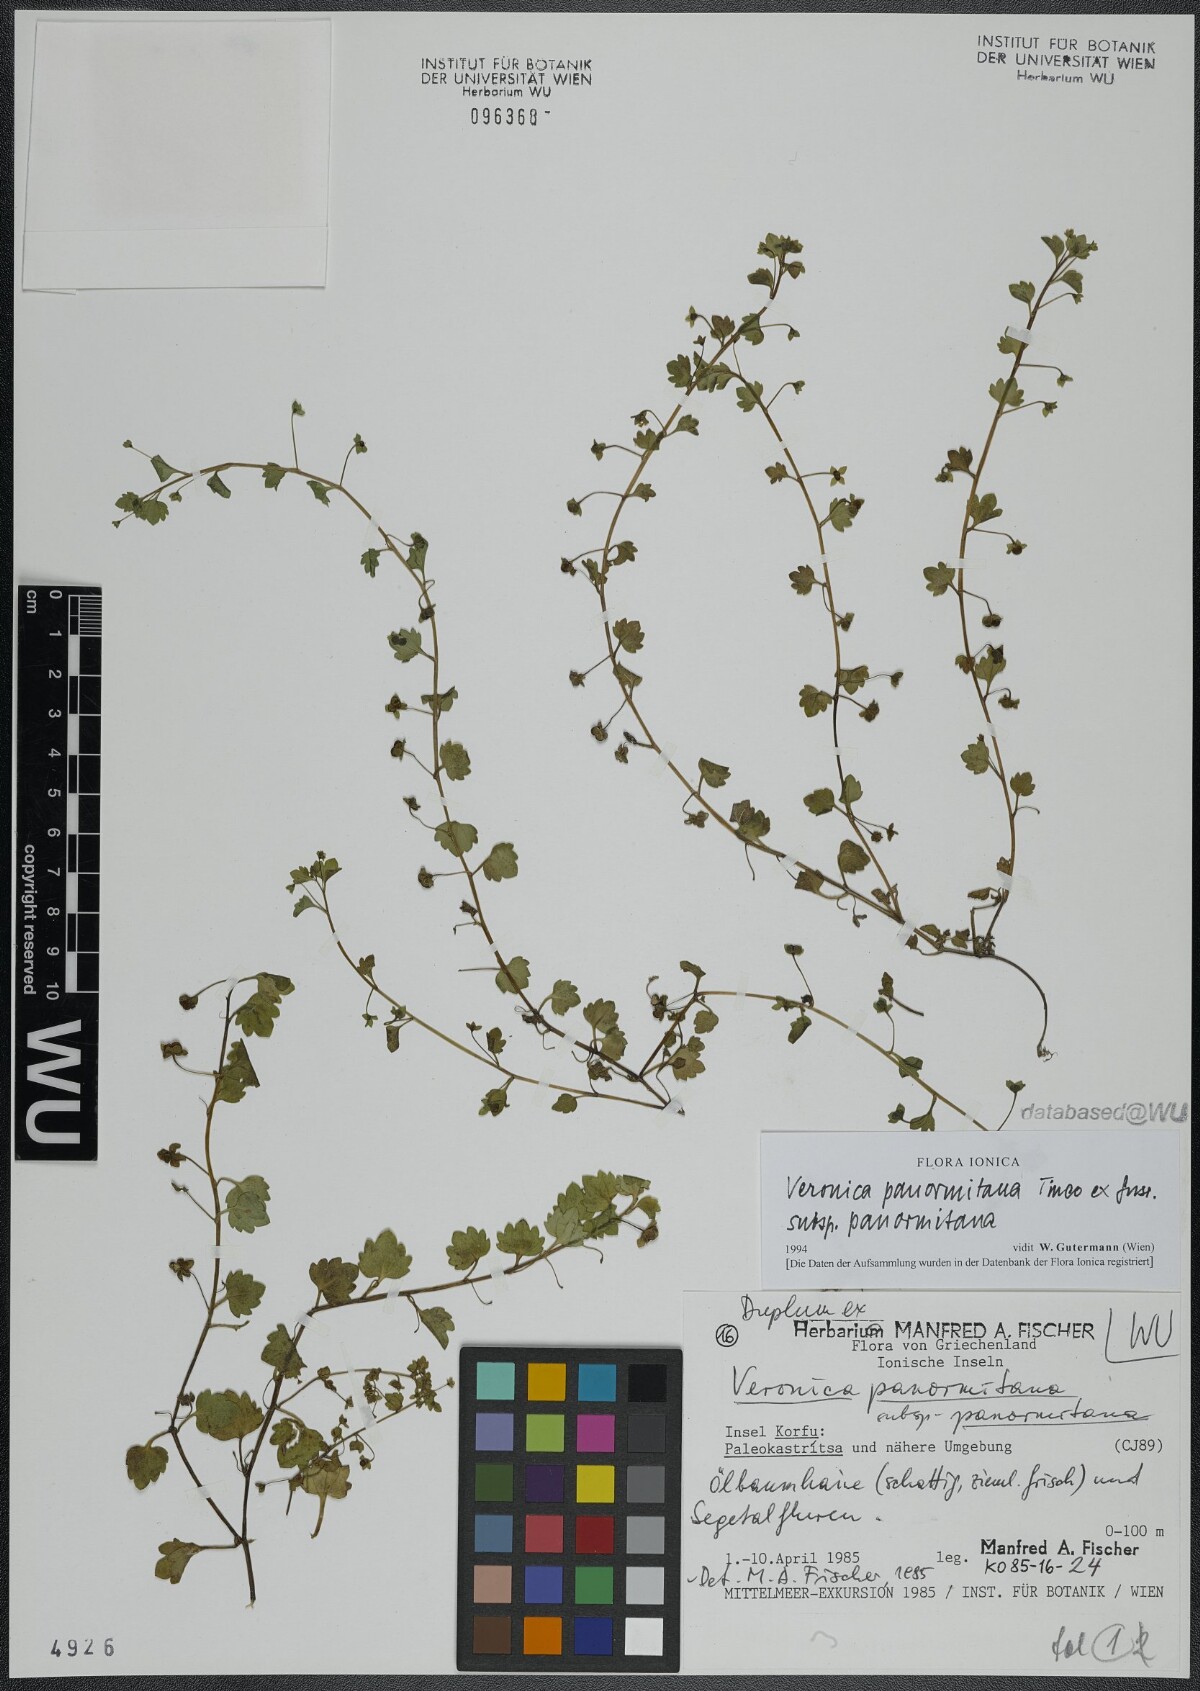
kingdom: Plantae
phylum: Tracheophyta
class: Magnoliopsida
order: Lamiales
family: Plantaginaceae
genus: Veronica
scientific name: Veronica panormitana
